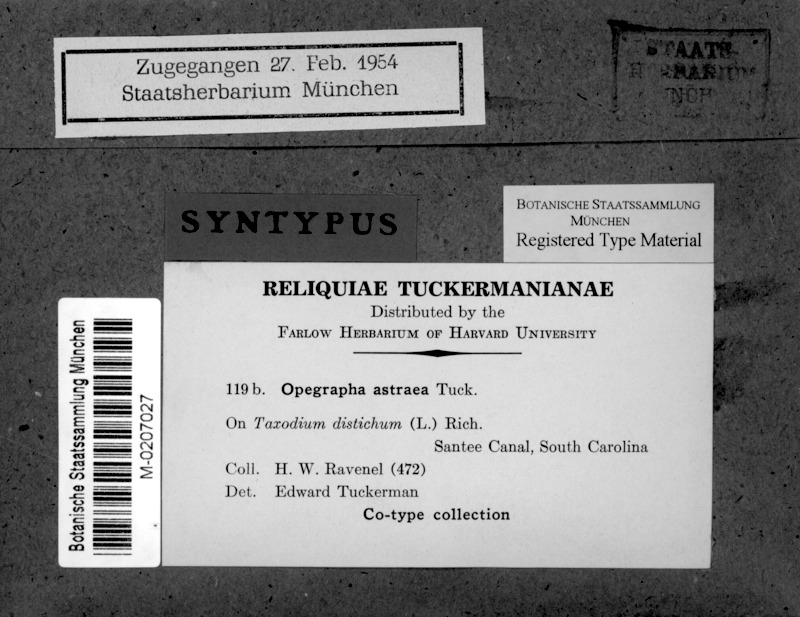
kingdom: Fungi
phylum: Ascomycota
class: Arthoniomycetes
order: Arthoniales
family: Opegraphaceae
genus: Opegrapha
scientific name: Opegrapha astraea
